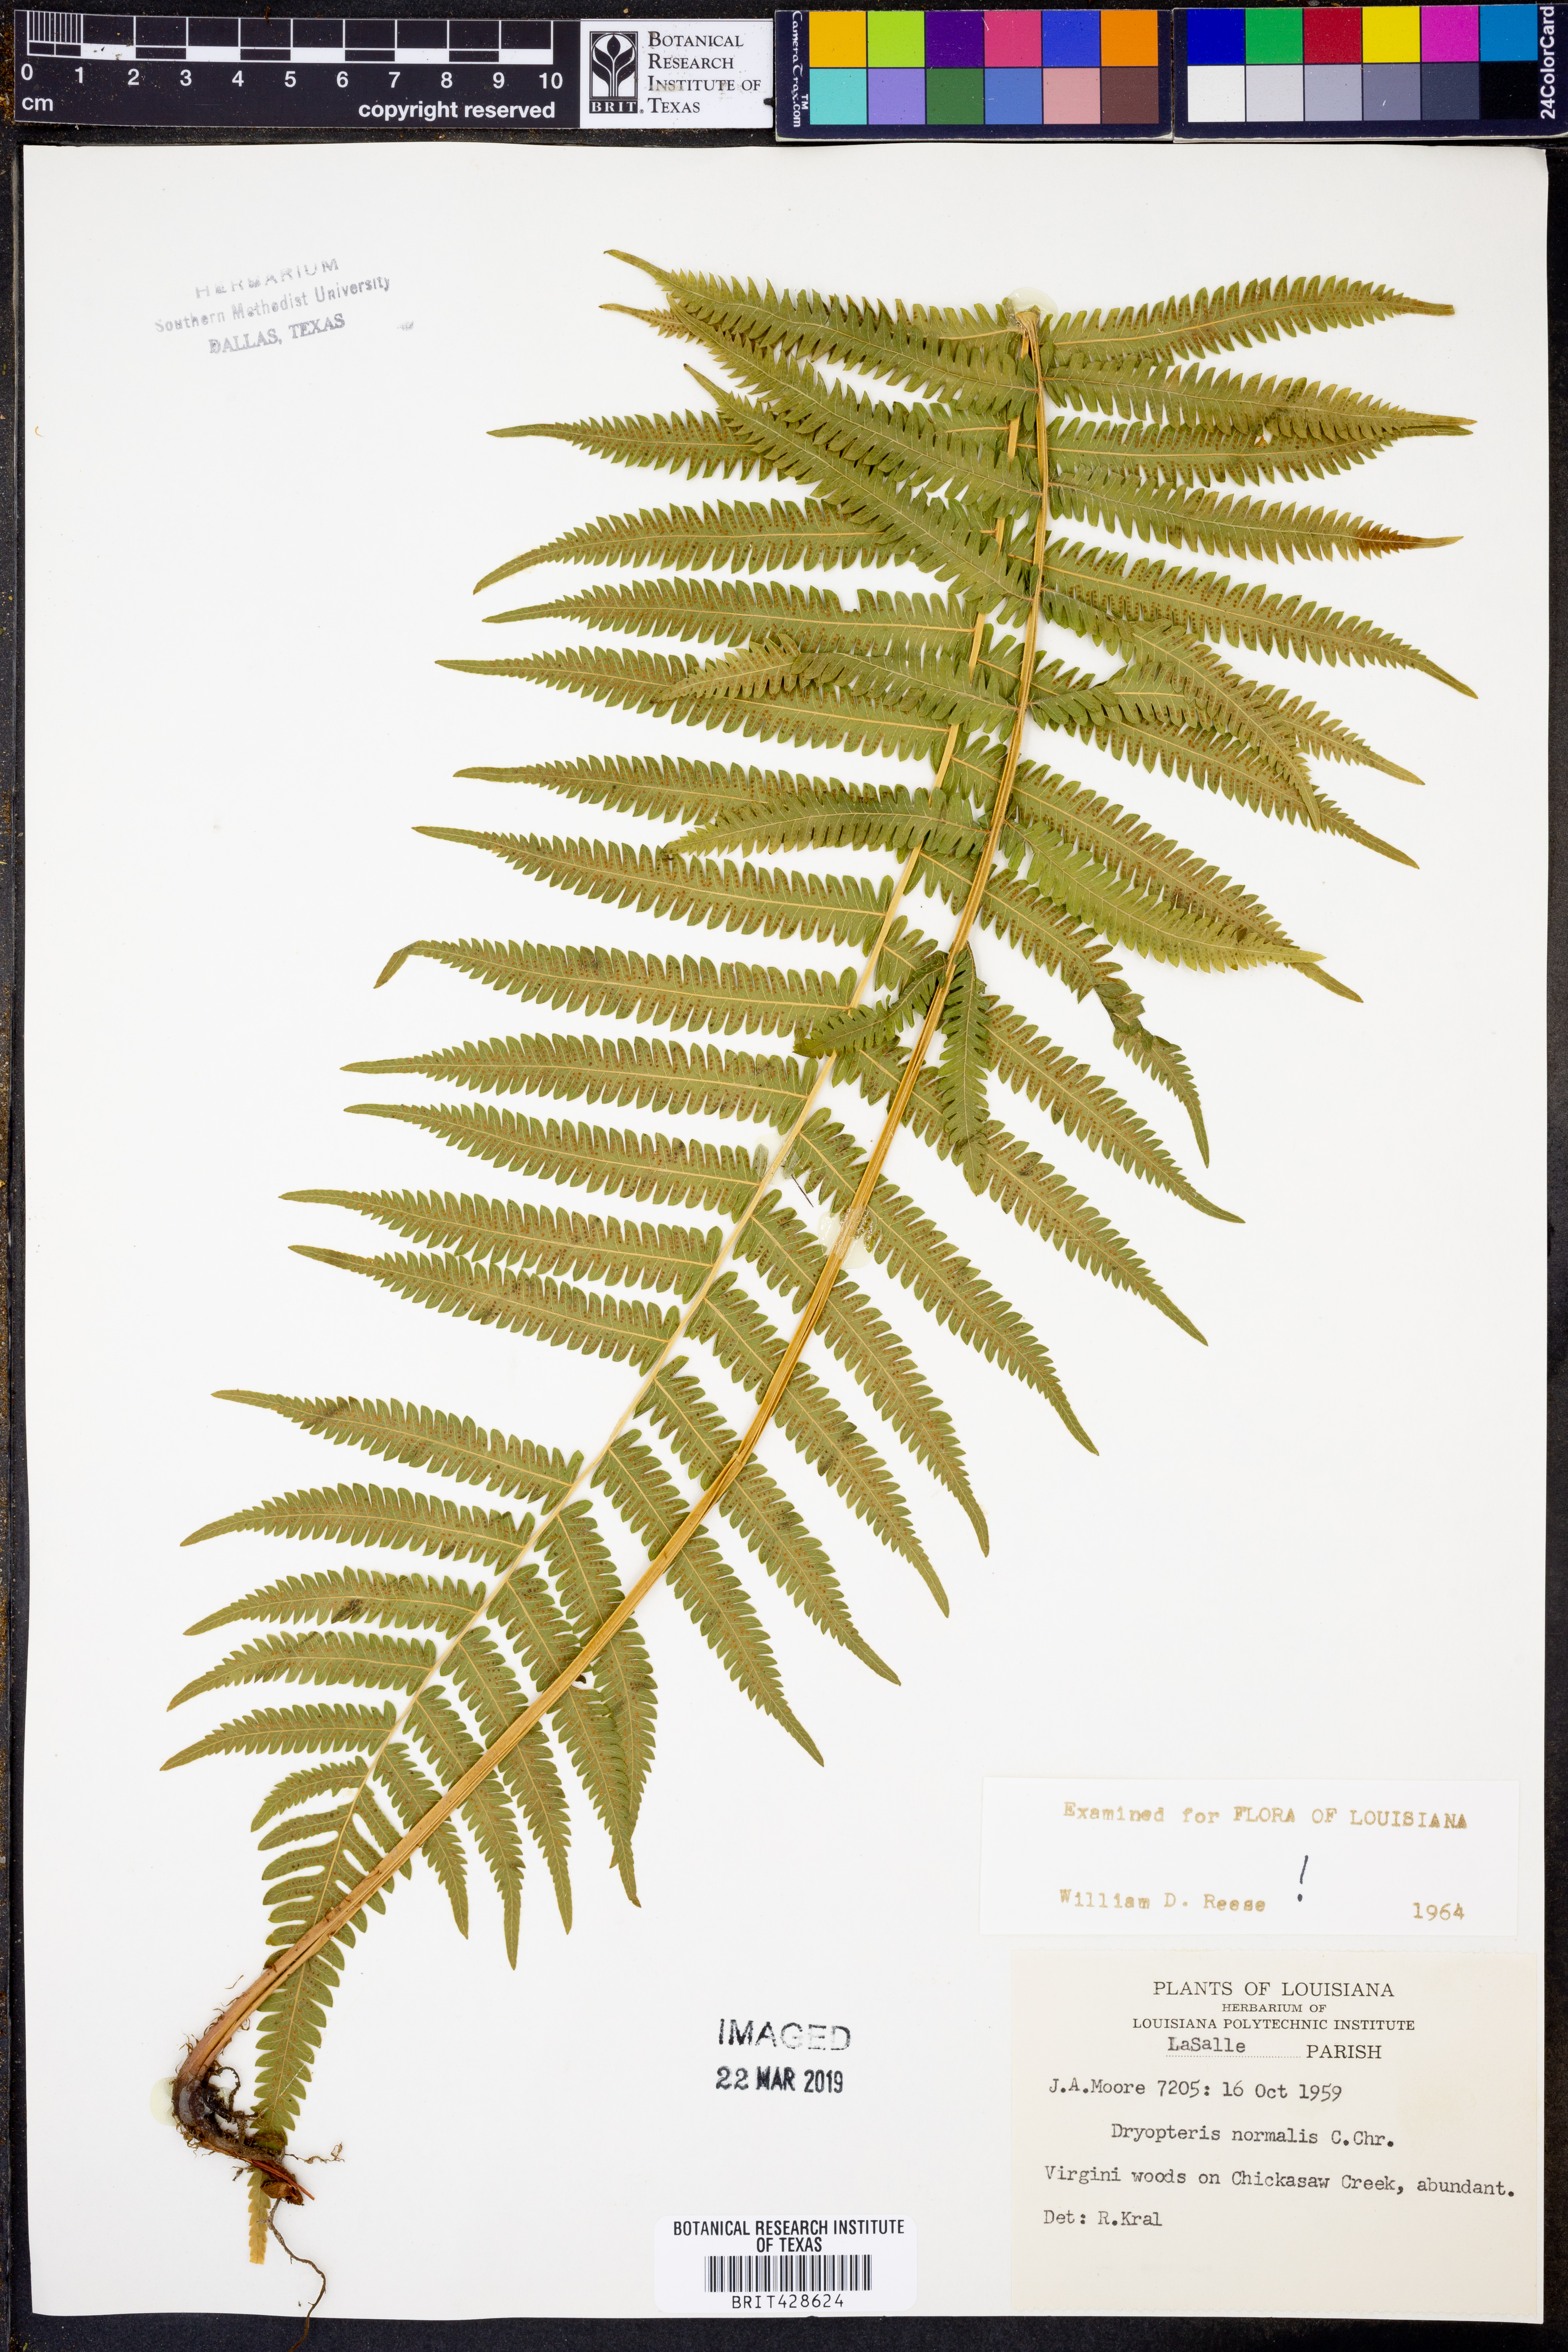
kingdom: Plantae
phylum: Tracheophyta
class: Polypodiopsida
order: Polypodiales
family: Thelypteridaceae
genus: Pelazoneuron
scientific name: Pelazoneuron kunthii
